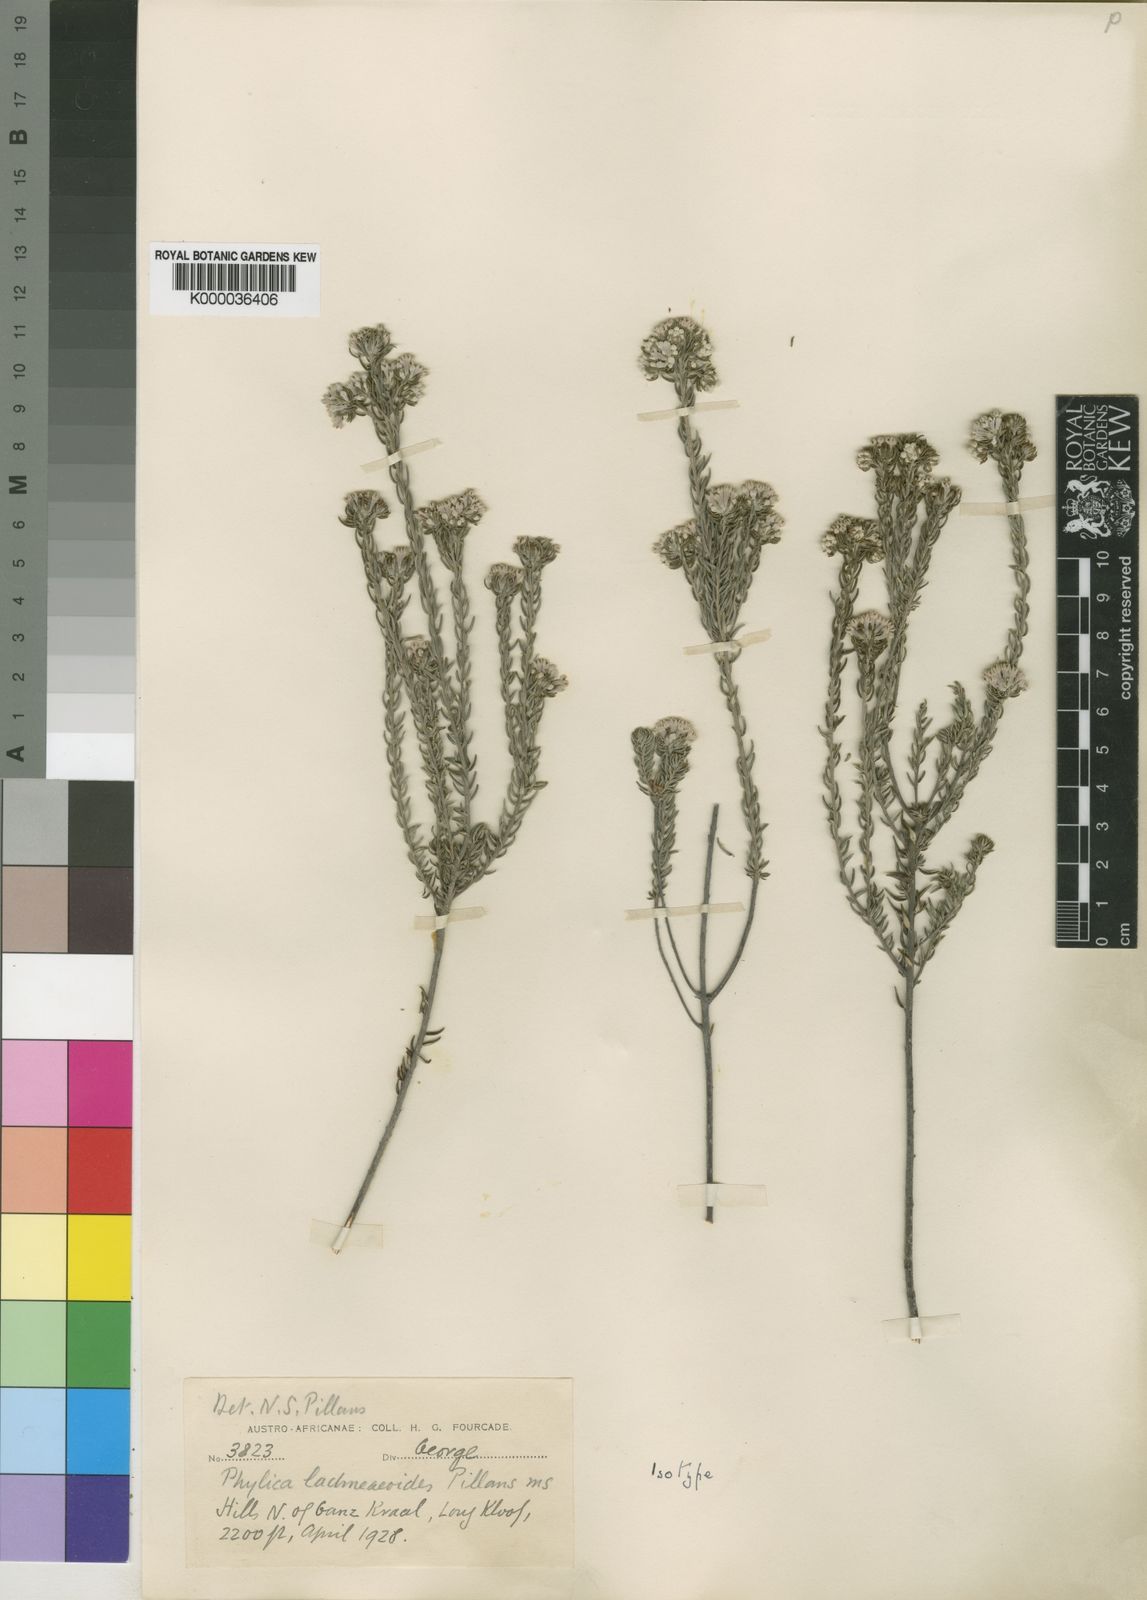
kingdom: Plantae
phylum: Tracheophyta
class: Magnoliopsida
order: Rosales
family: Rhamnaceae
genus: Phylica
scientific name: Phylica lachneaeoides
